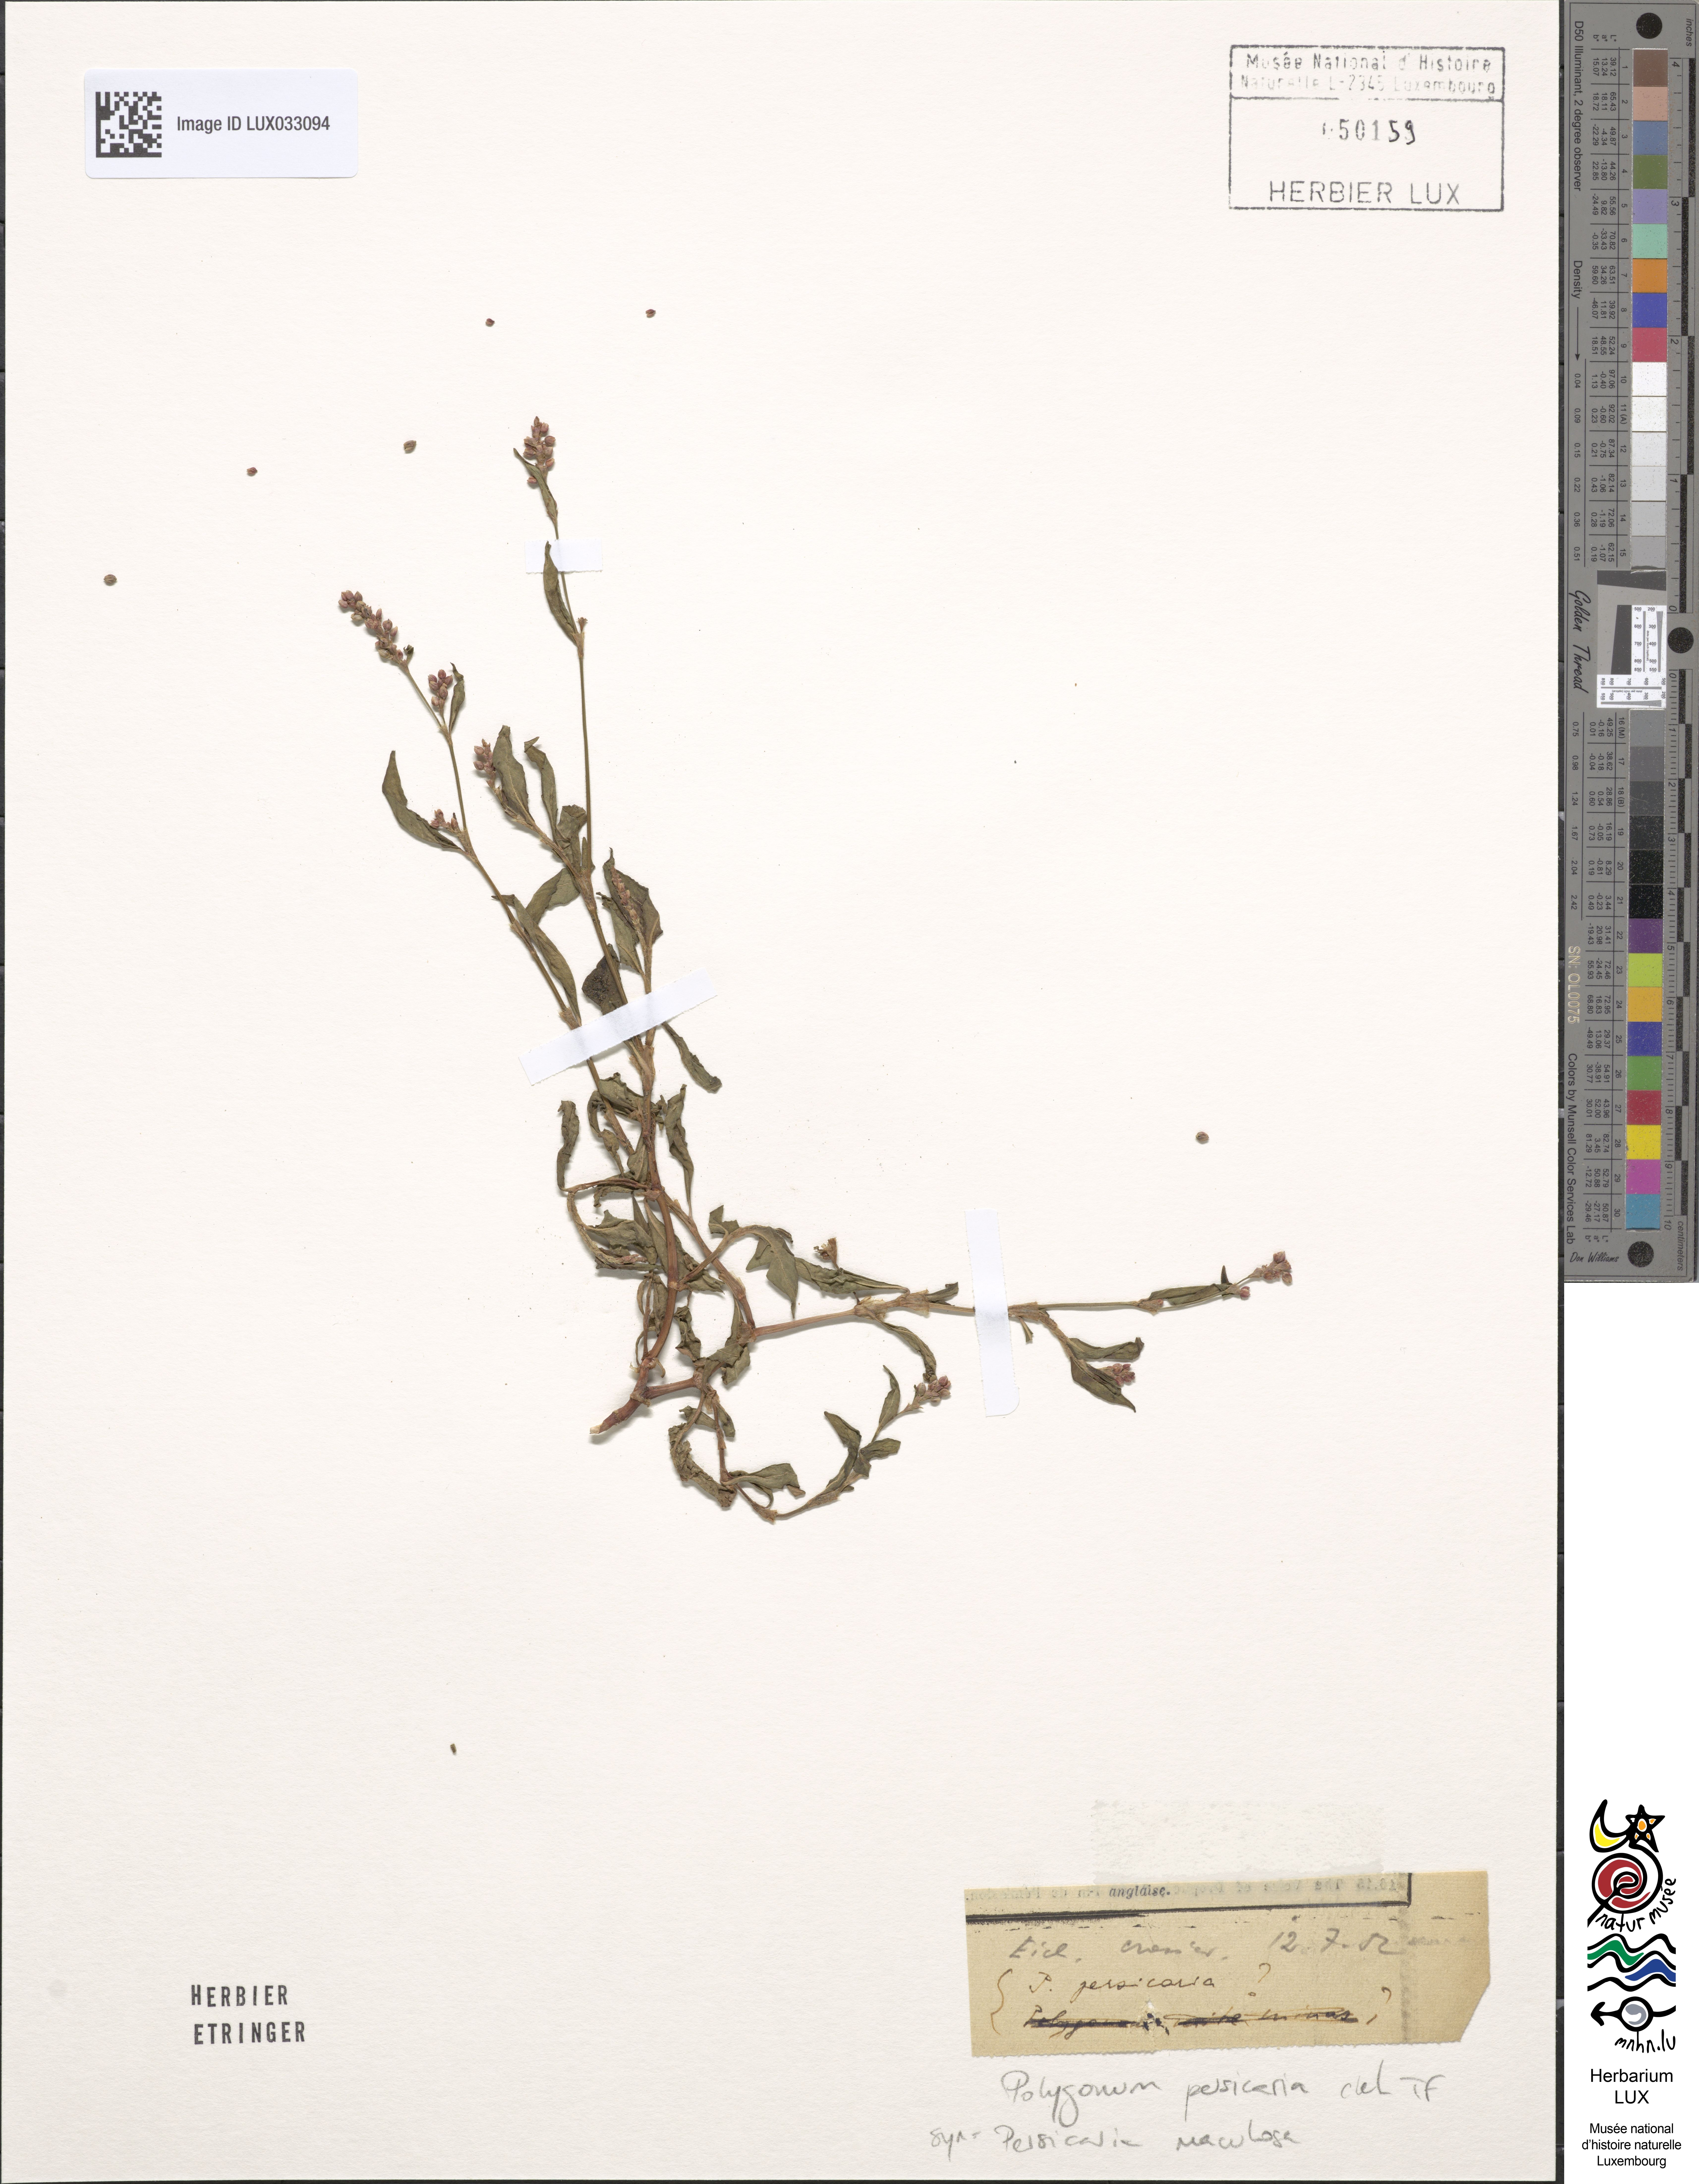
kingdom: Plantae
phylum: Tracheophyta
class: Magnoliopsida
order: Caryophyllales
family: Polygonaceae
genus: Persicaria
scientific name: Persicaria maculosa
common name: Redshank
